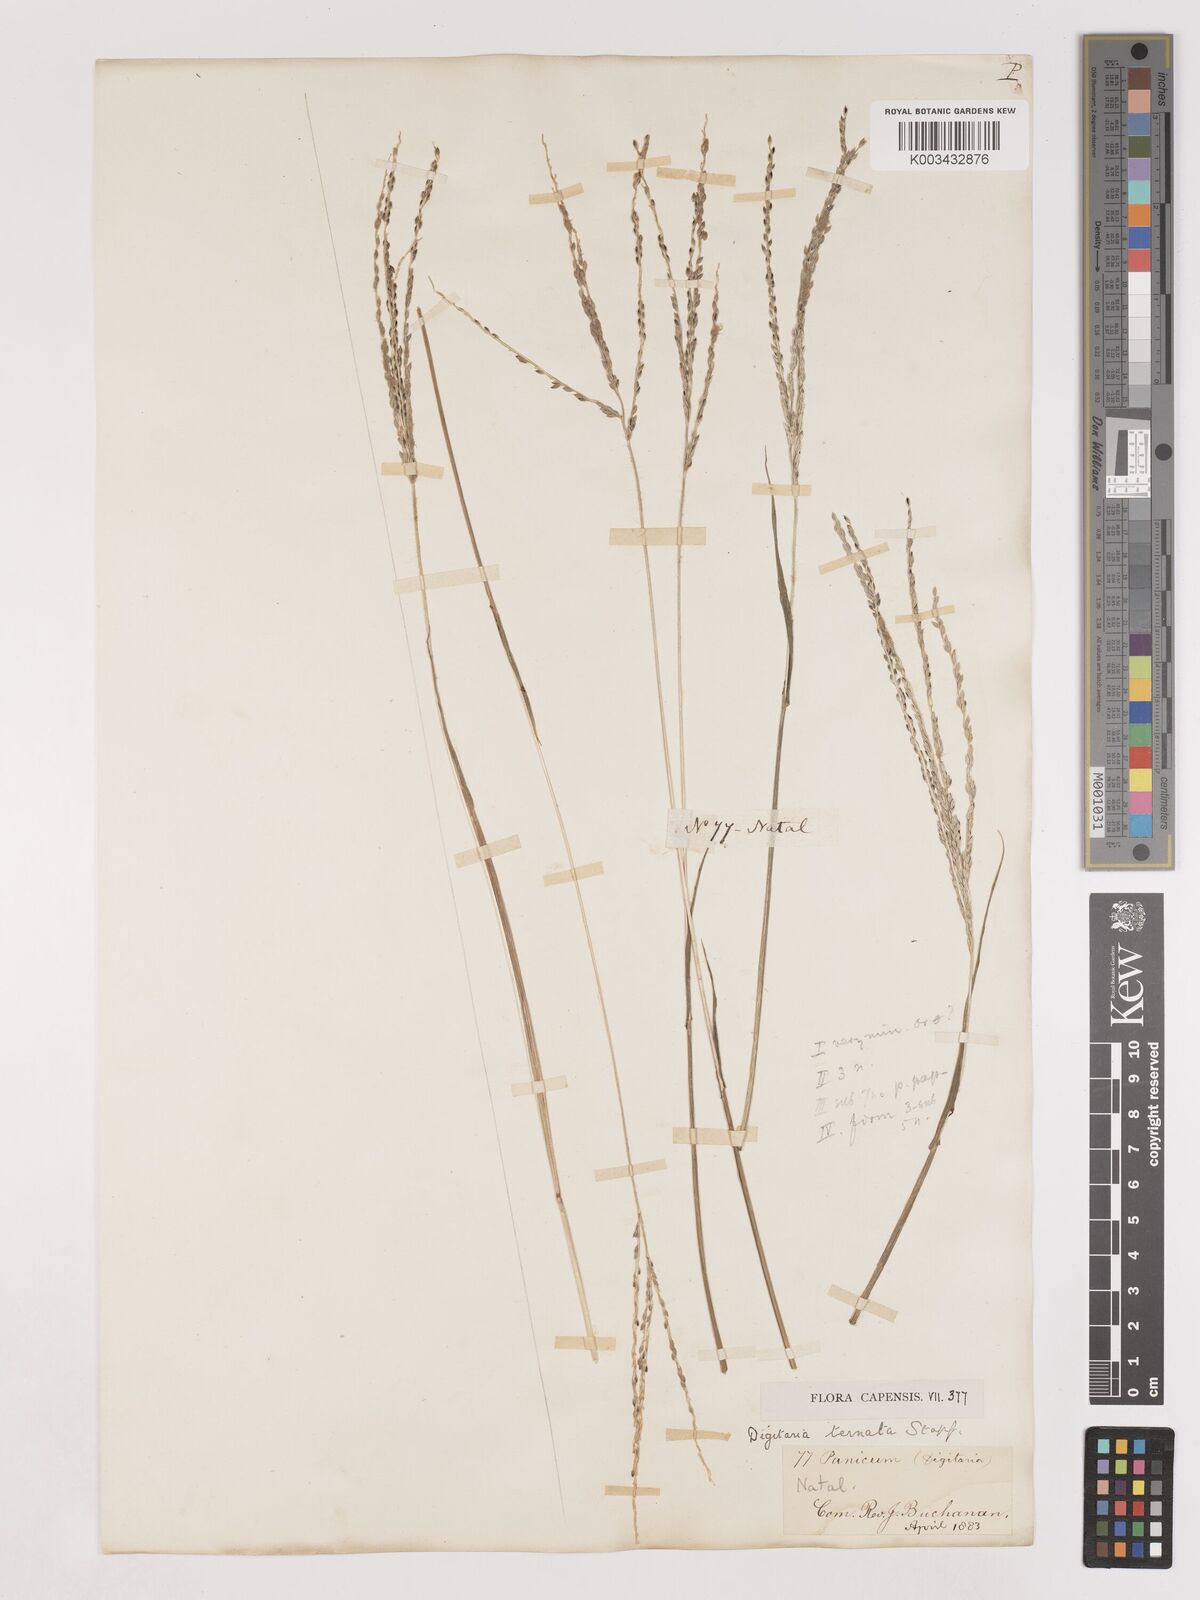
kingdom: Plantae
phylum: Tracheophyta
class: Liliopsida
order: Poales
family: Poaceae
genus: Digitaria
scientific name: Digitaria ternata
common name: Blackseed crabgrass
